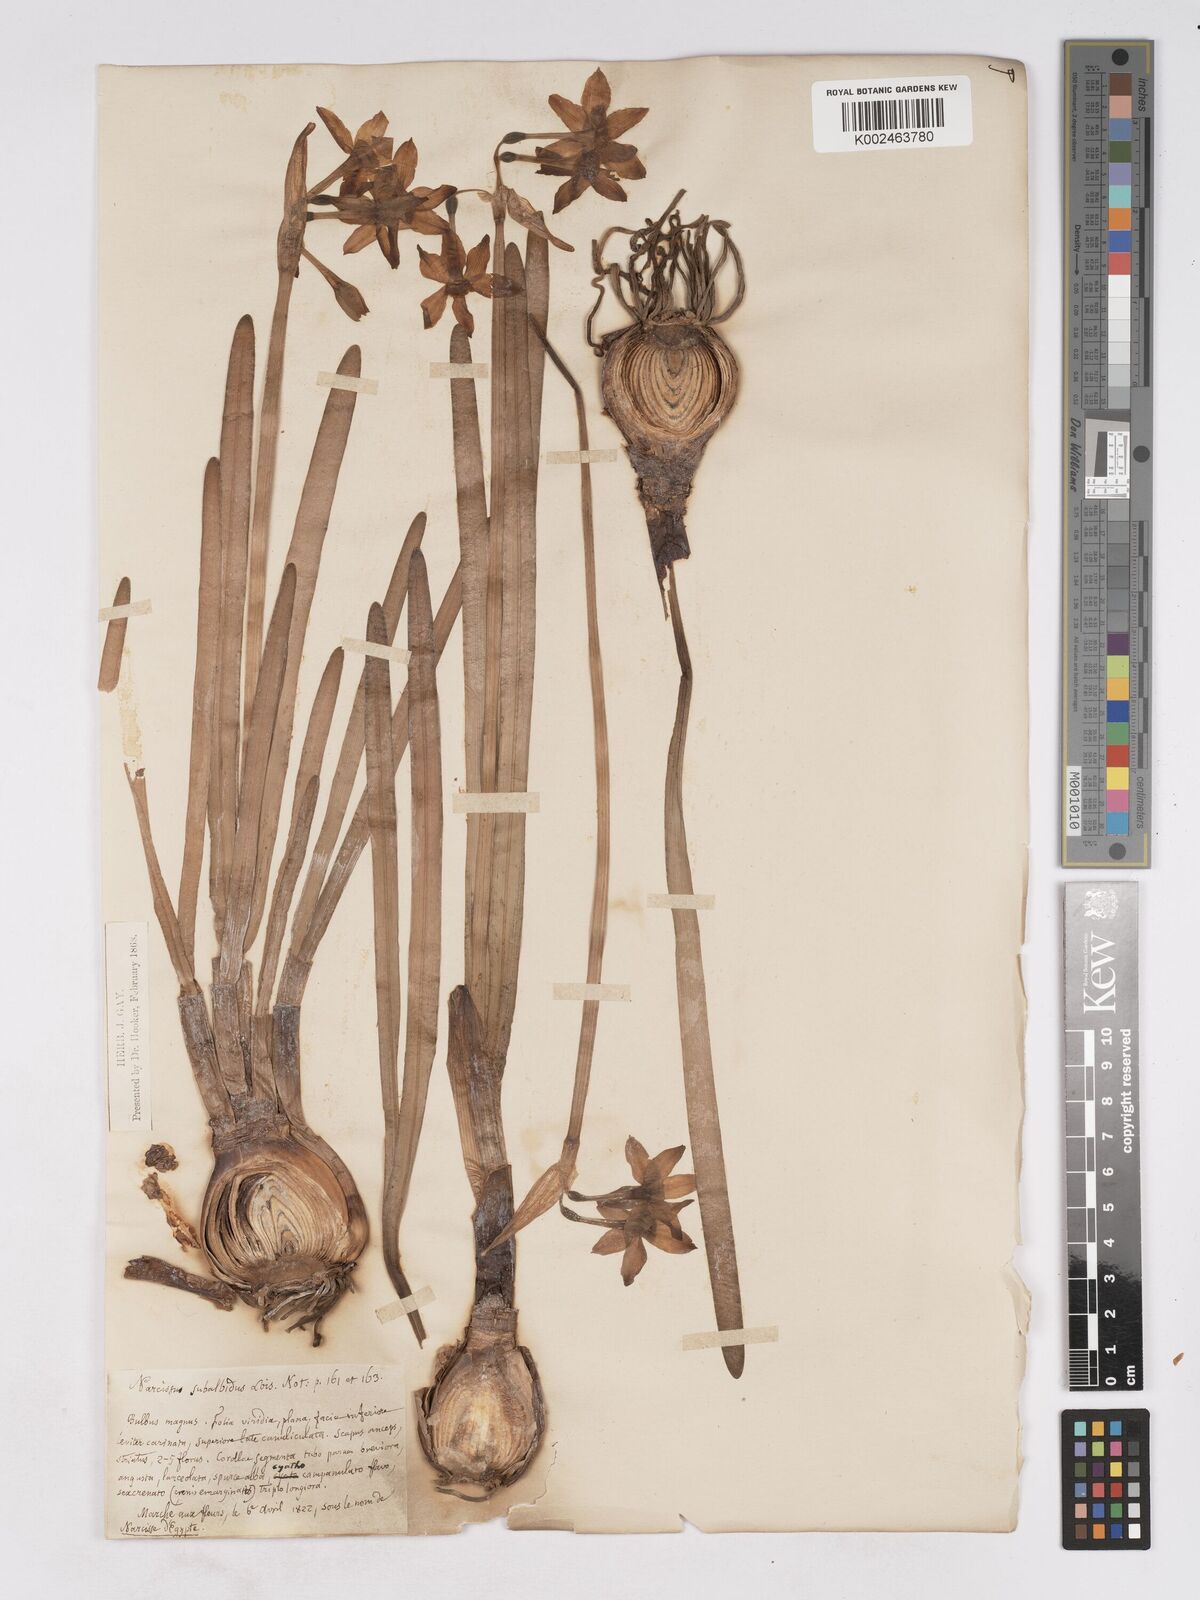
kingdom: Plantae
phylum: Tracheophyta
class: Liliopsida
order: Asparagales
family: Amaryllidaceae
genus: Narcissus
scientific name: Narcissus
